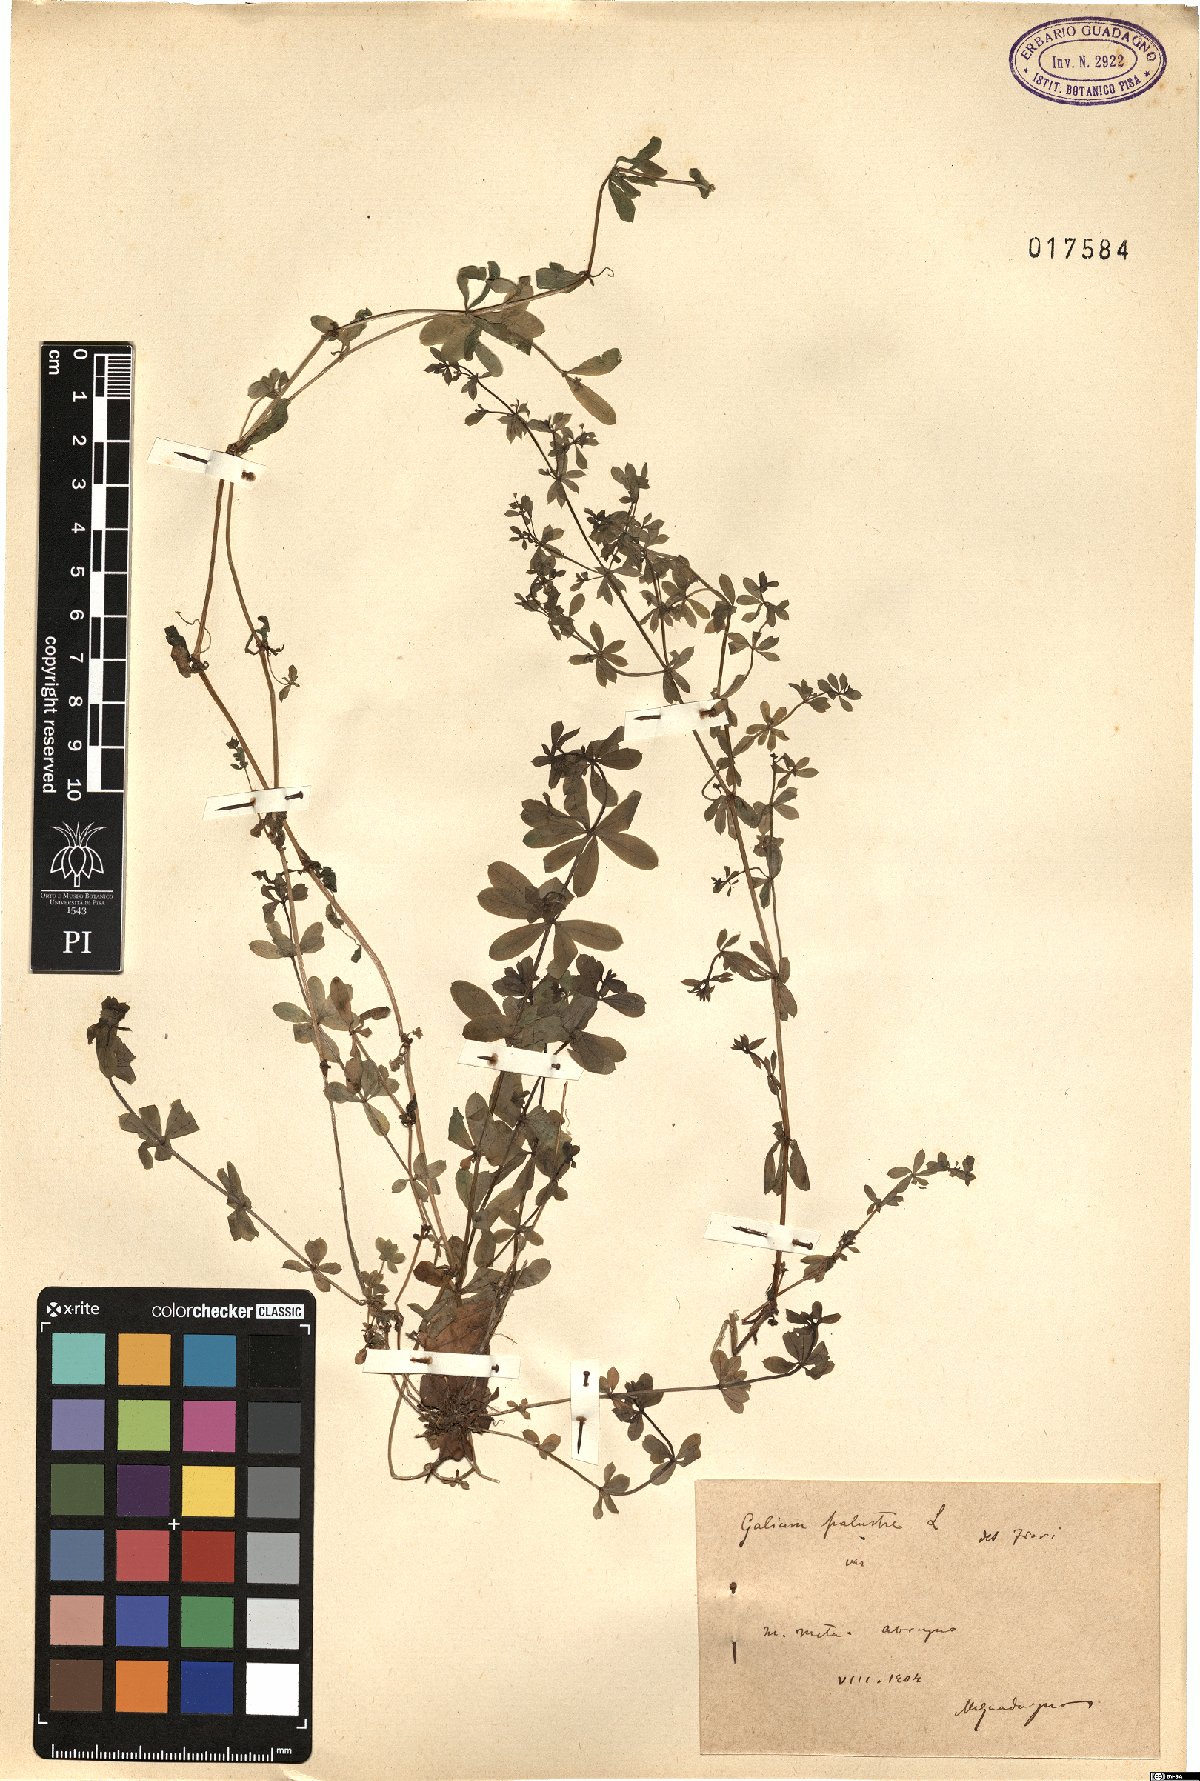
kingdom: Plantae
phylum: Tracheophyta
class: Magnoliopsida
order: Gentianales
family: Rubiaceae
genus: Galium
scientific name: Galium palustre
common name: Common marsh-bedstraw
